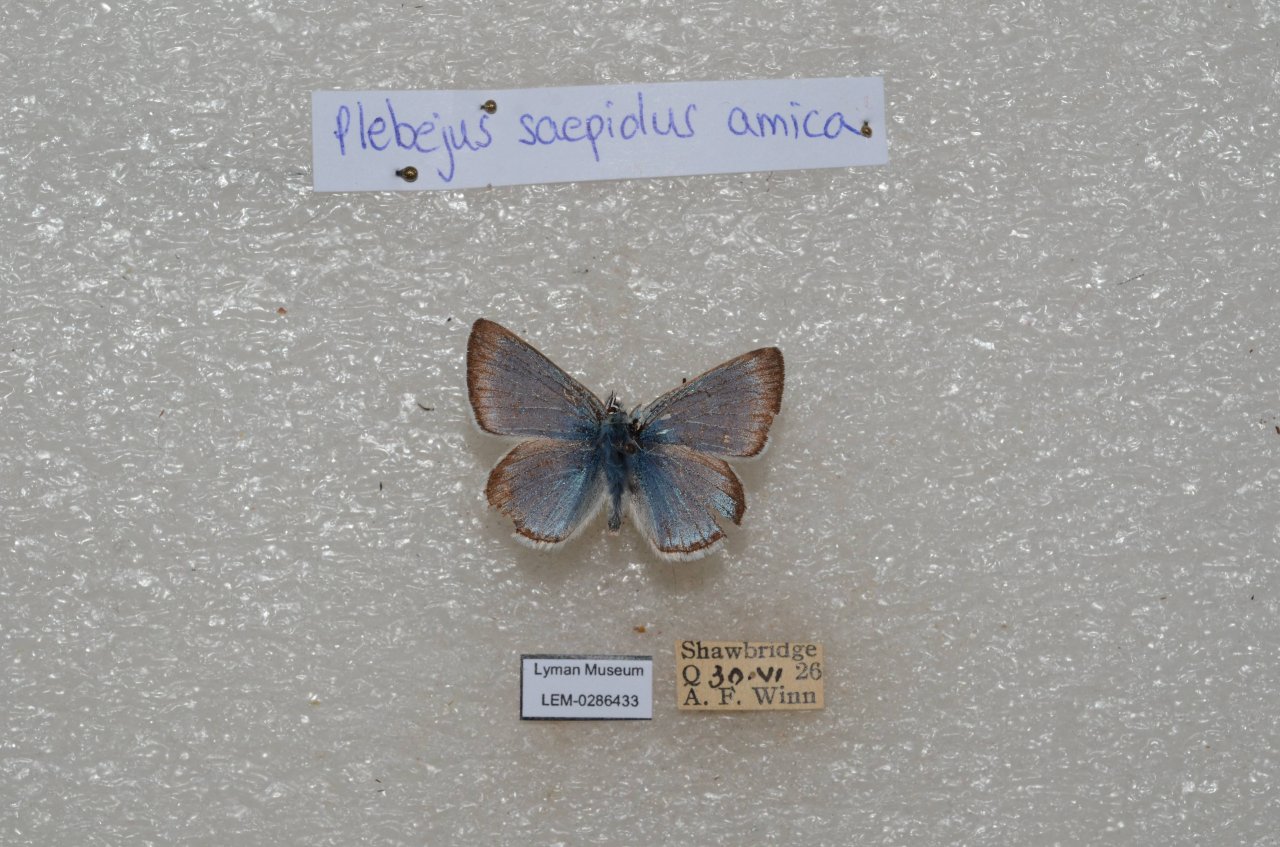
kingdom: Animalia
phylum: Arthropoda
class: Insecta
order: Lepidoptera
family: Lycaenidae
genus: Plebejus
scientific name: Plebejus saepiolus
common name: Greenish Blue
